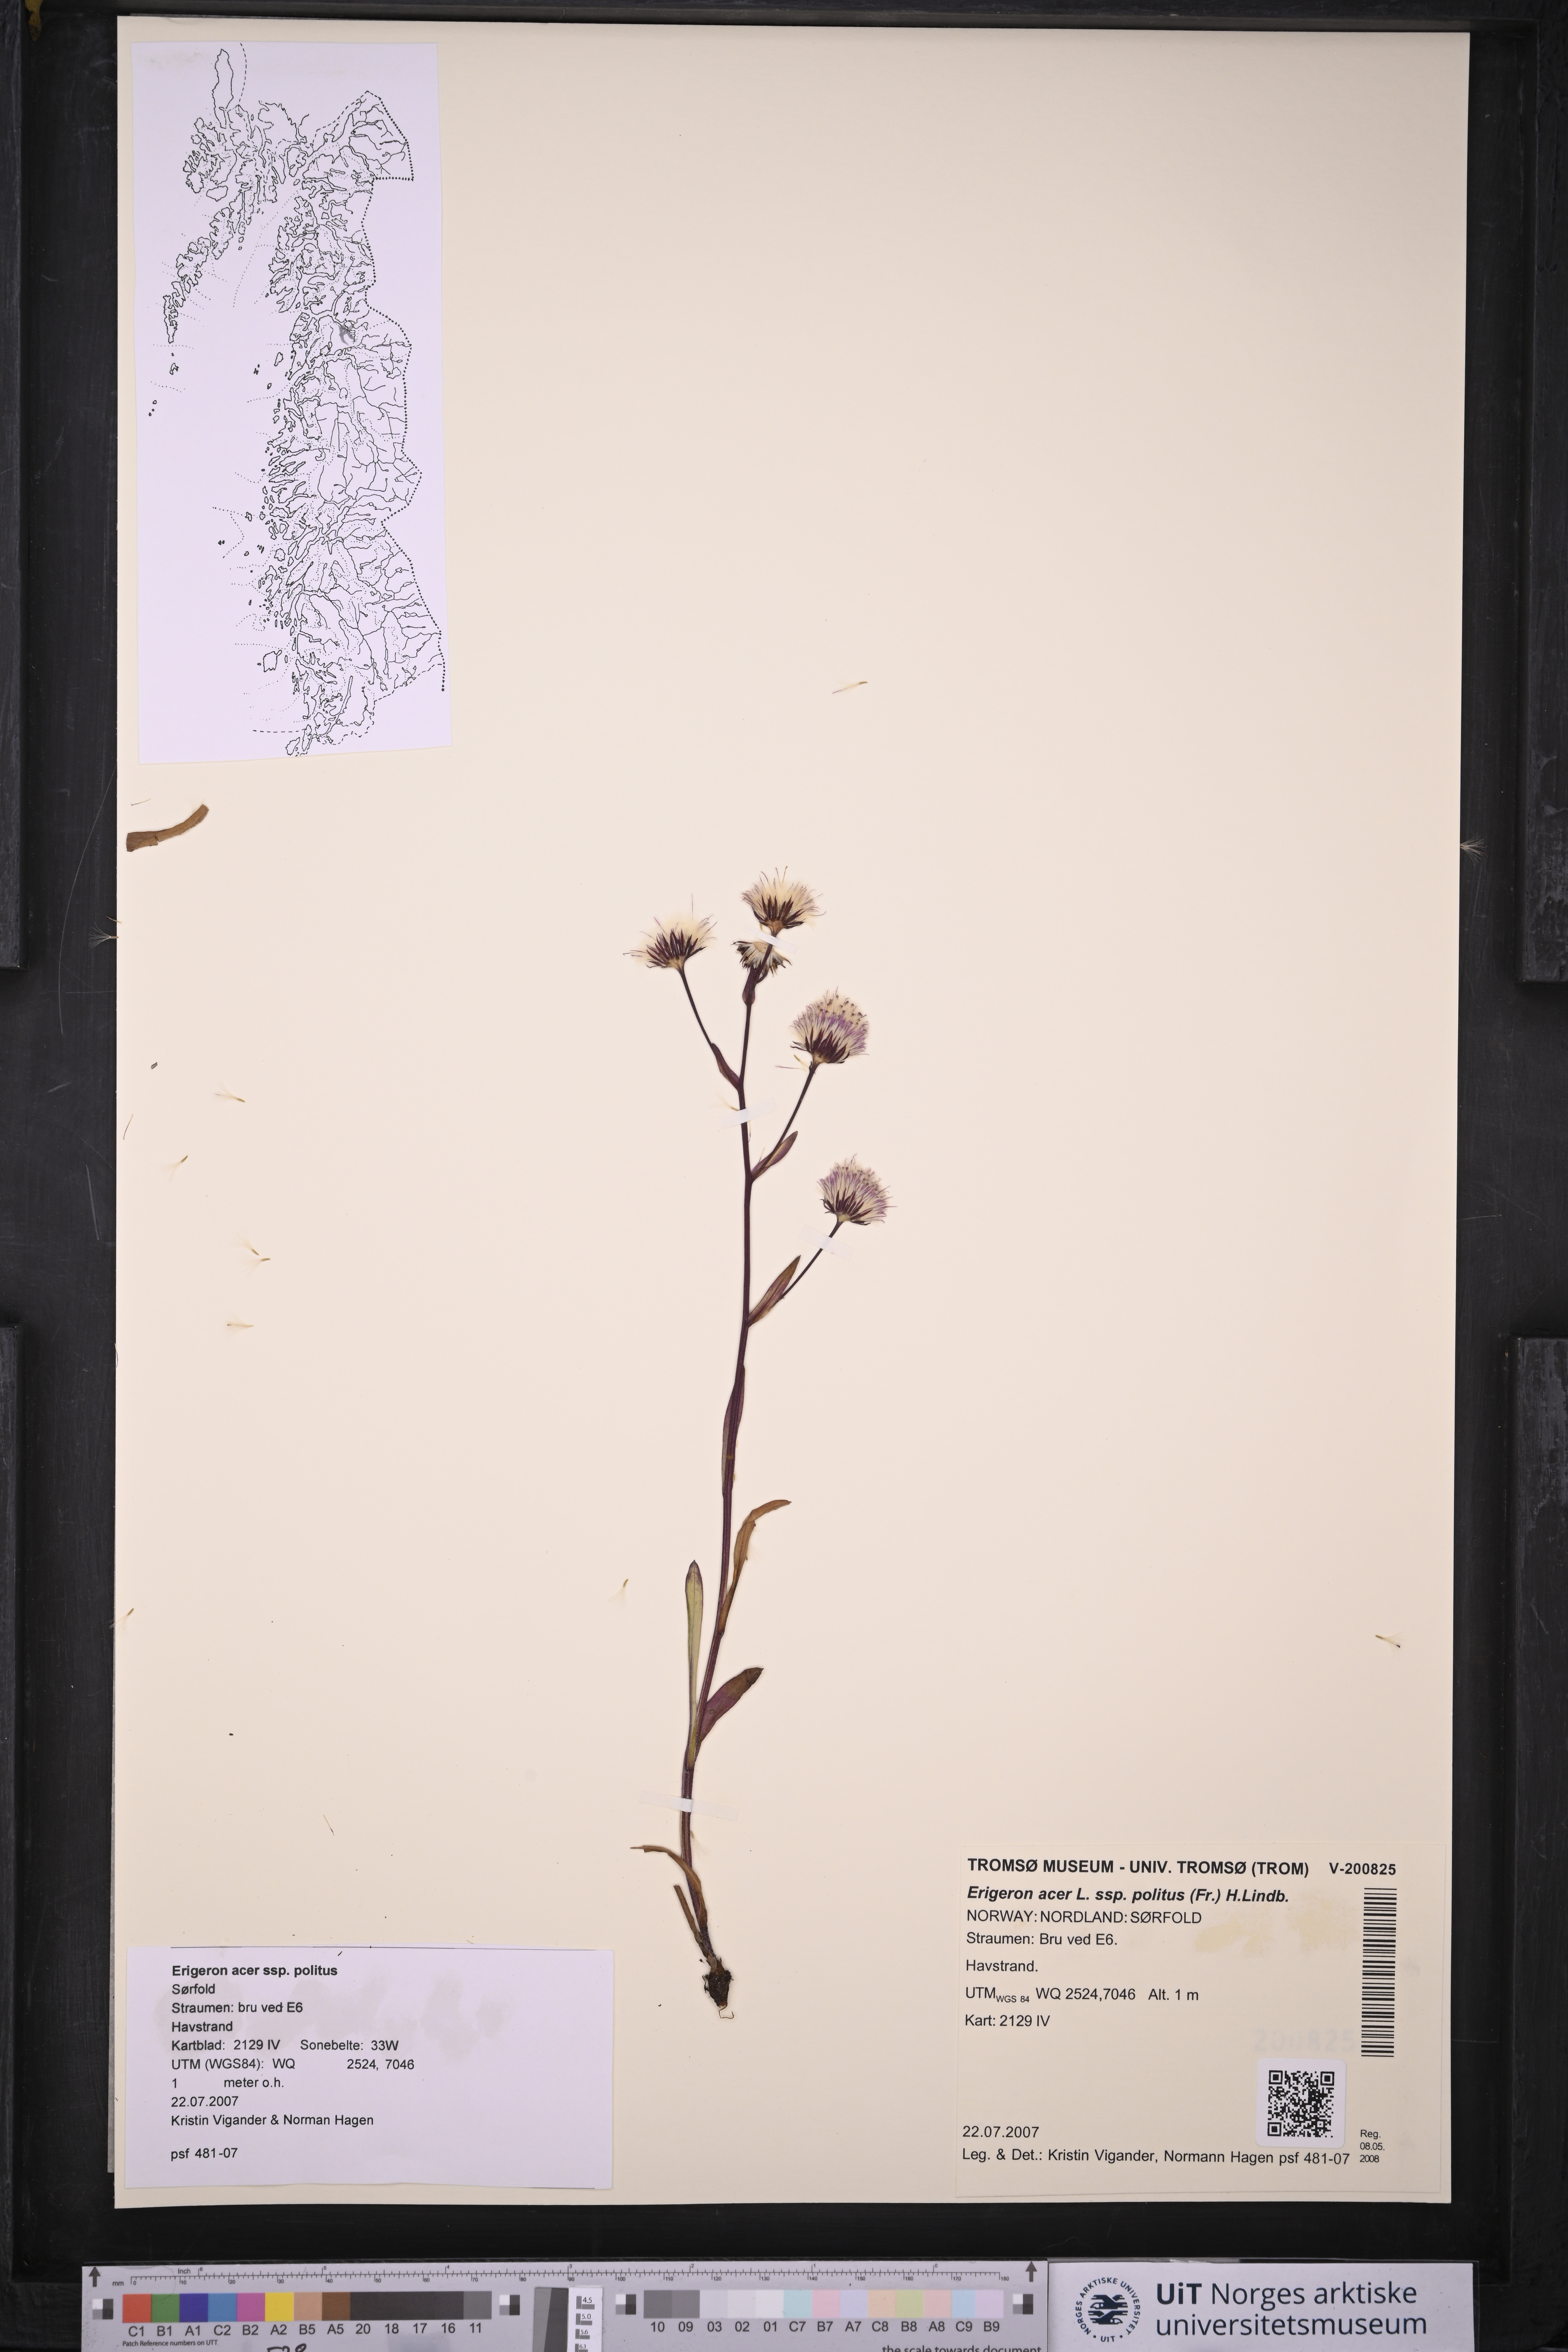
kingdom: Plantae
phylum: Tracheophyta
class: Magnoliopsida
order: Asterales
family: Asteraceae
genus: Erigeron
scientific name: Erigeron politus
